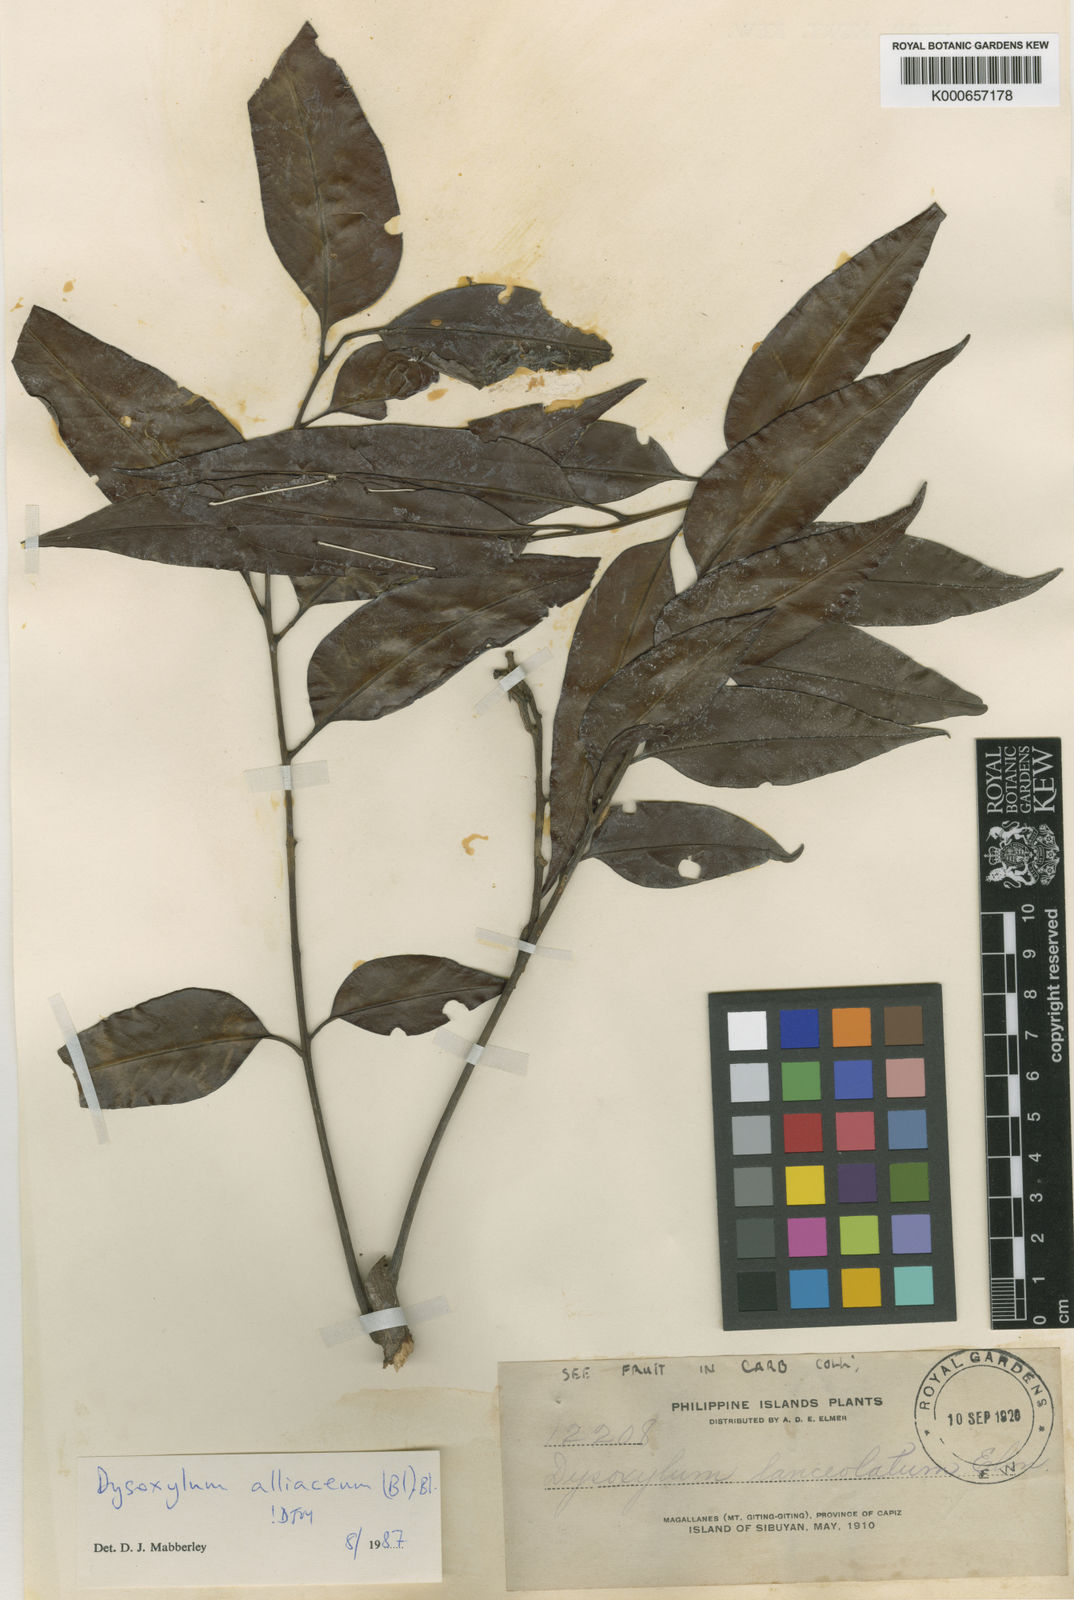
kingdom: Plantae
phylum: Tracheophyta
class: Magnoliopsida
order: Sapindales
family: Meliaceae
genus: Prasoxylon
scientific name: Prasoxylon alliaceum
